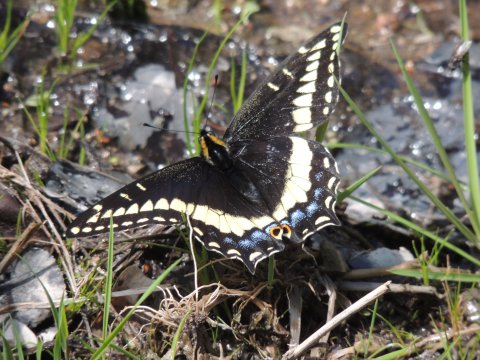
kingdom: Animalia
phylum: Arthropoda
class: Insecta
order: Lepidoptera
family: Papilionidae
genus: Papilio
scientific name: Papilio indra
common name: Indra Swallowtail
